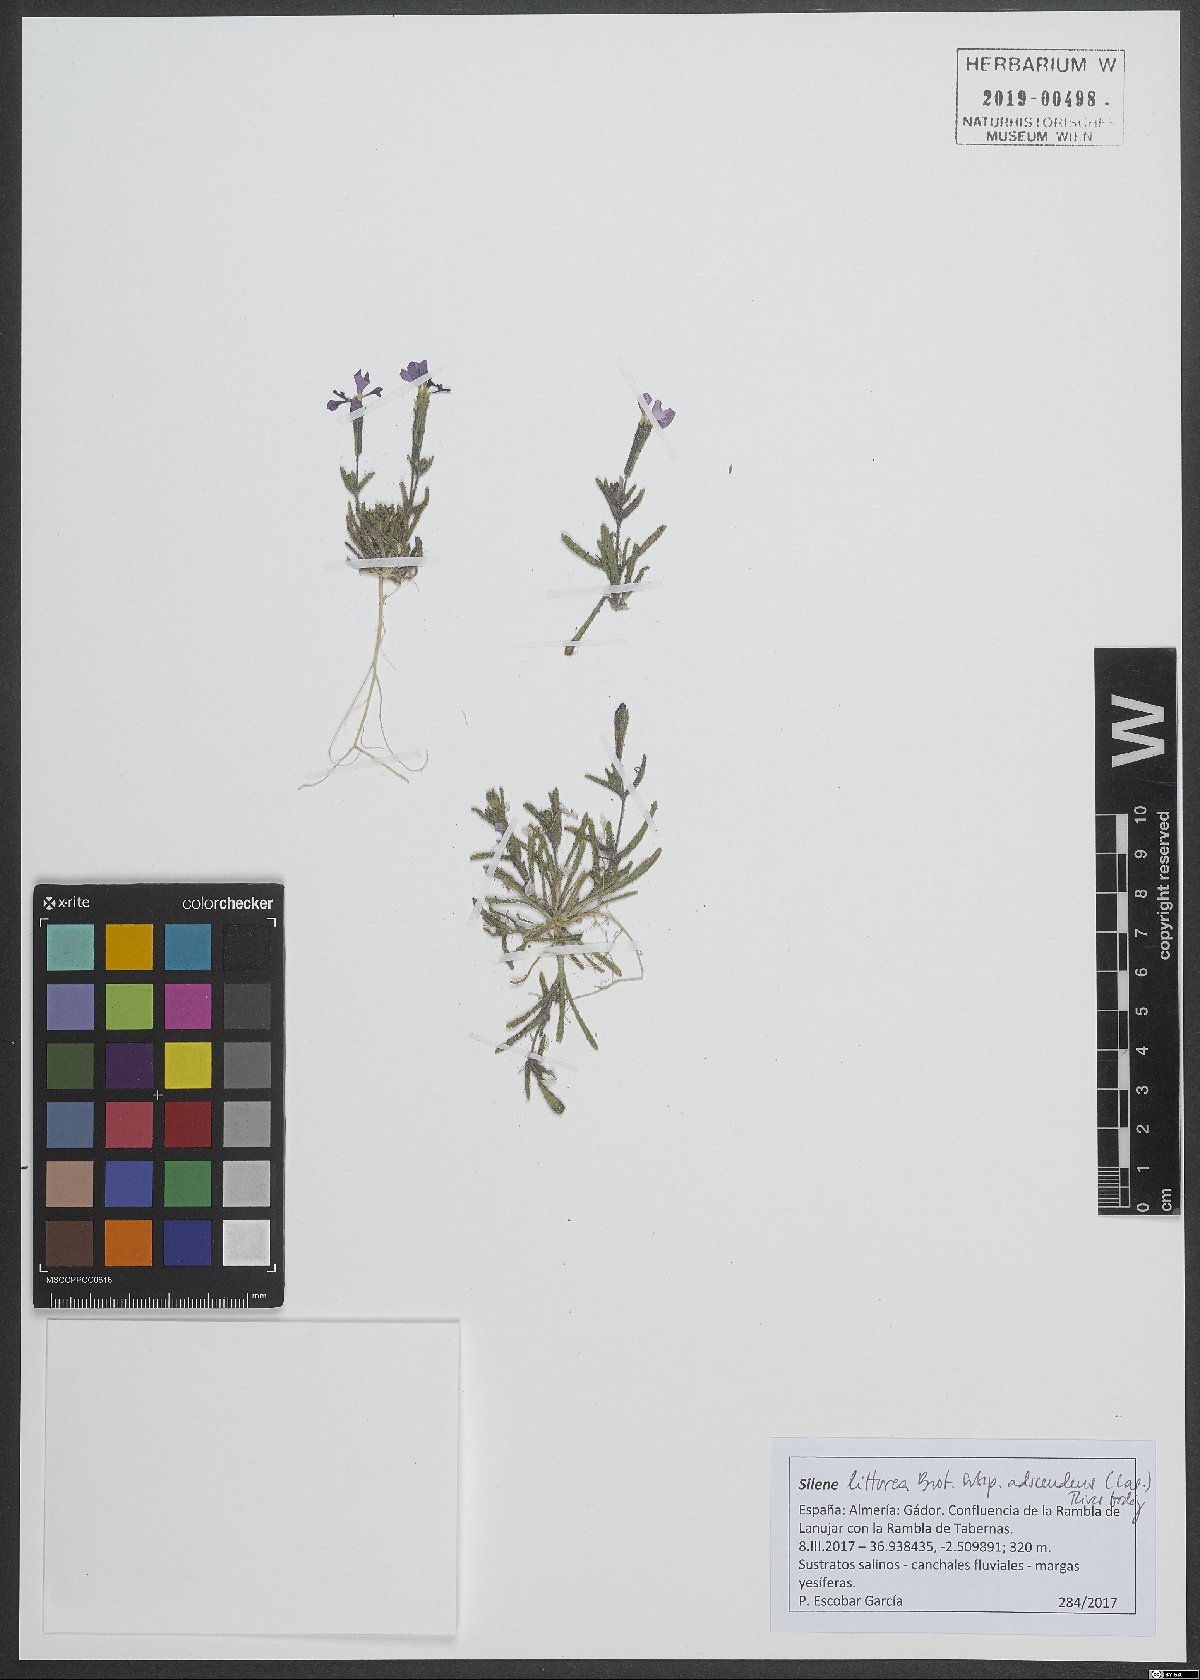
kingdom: Plantae
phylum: Tracheophyta
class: Magnoliopsida
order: Caryophyllales
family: Caryophyllaceae
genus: Silene
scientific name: Silene littorea
